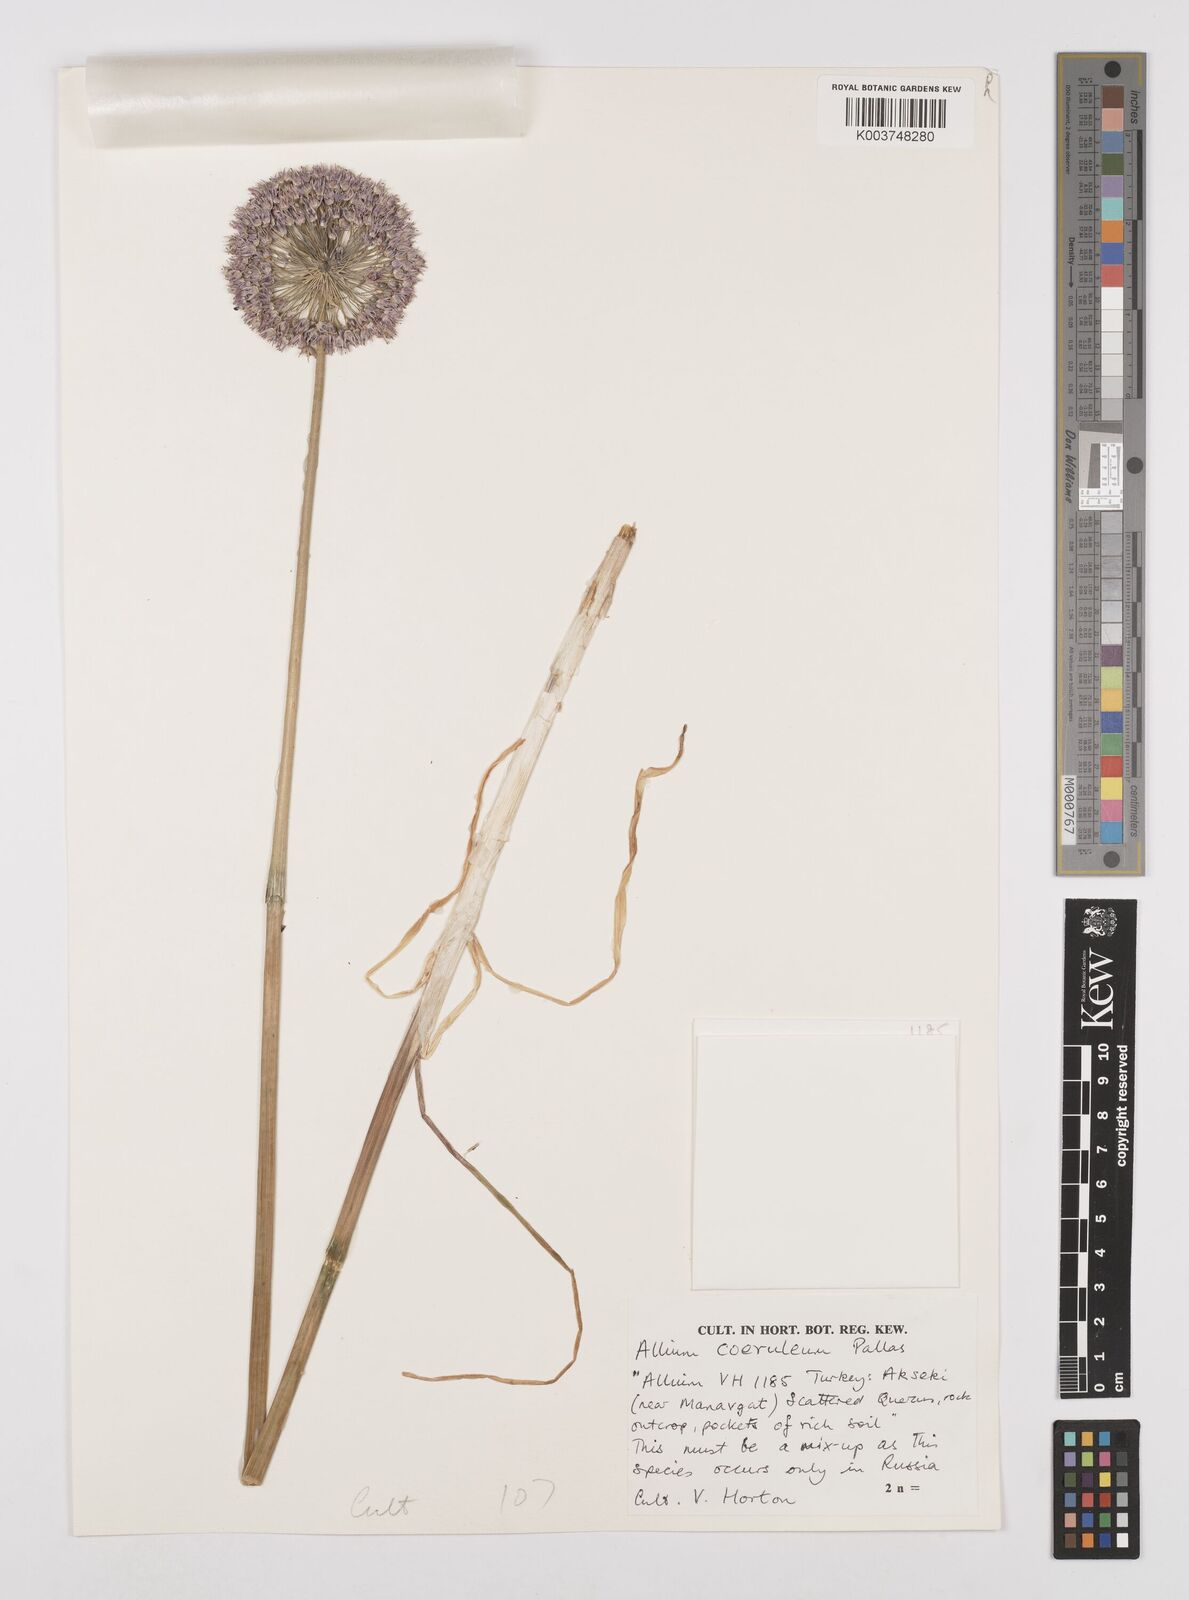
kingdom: Plantae
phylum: Tracheophyta
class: Liliopsida
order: Asparagales
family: Amaryllidaceae
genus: Allium
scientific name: Allium caeruleum
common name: Blue-of-the-heavens
